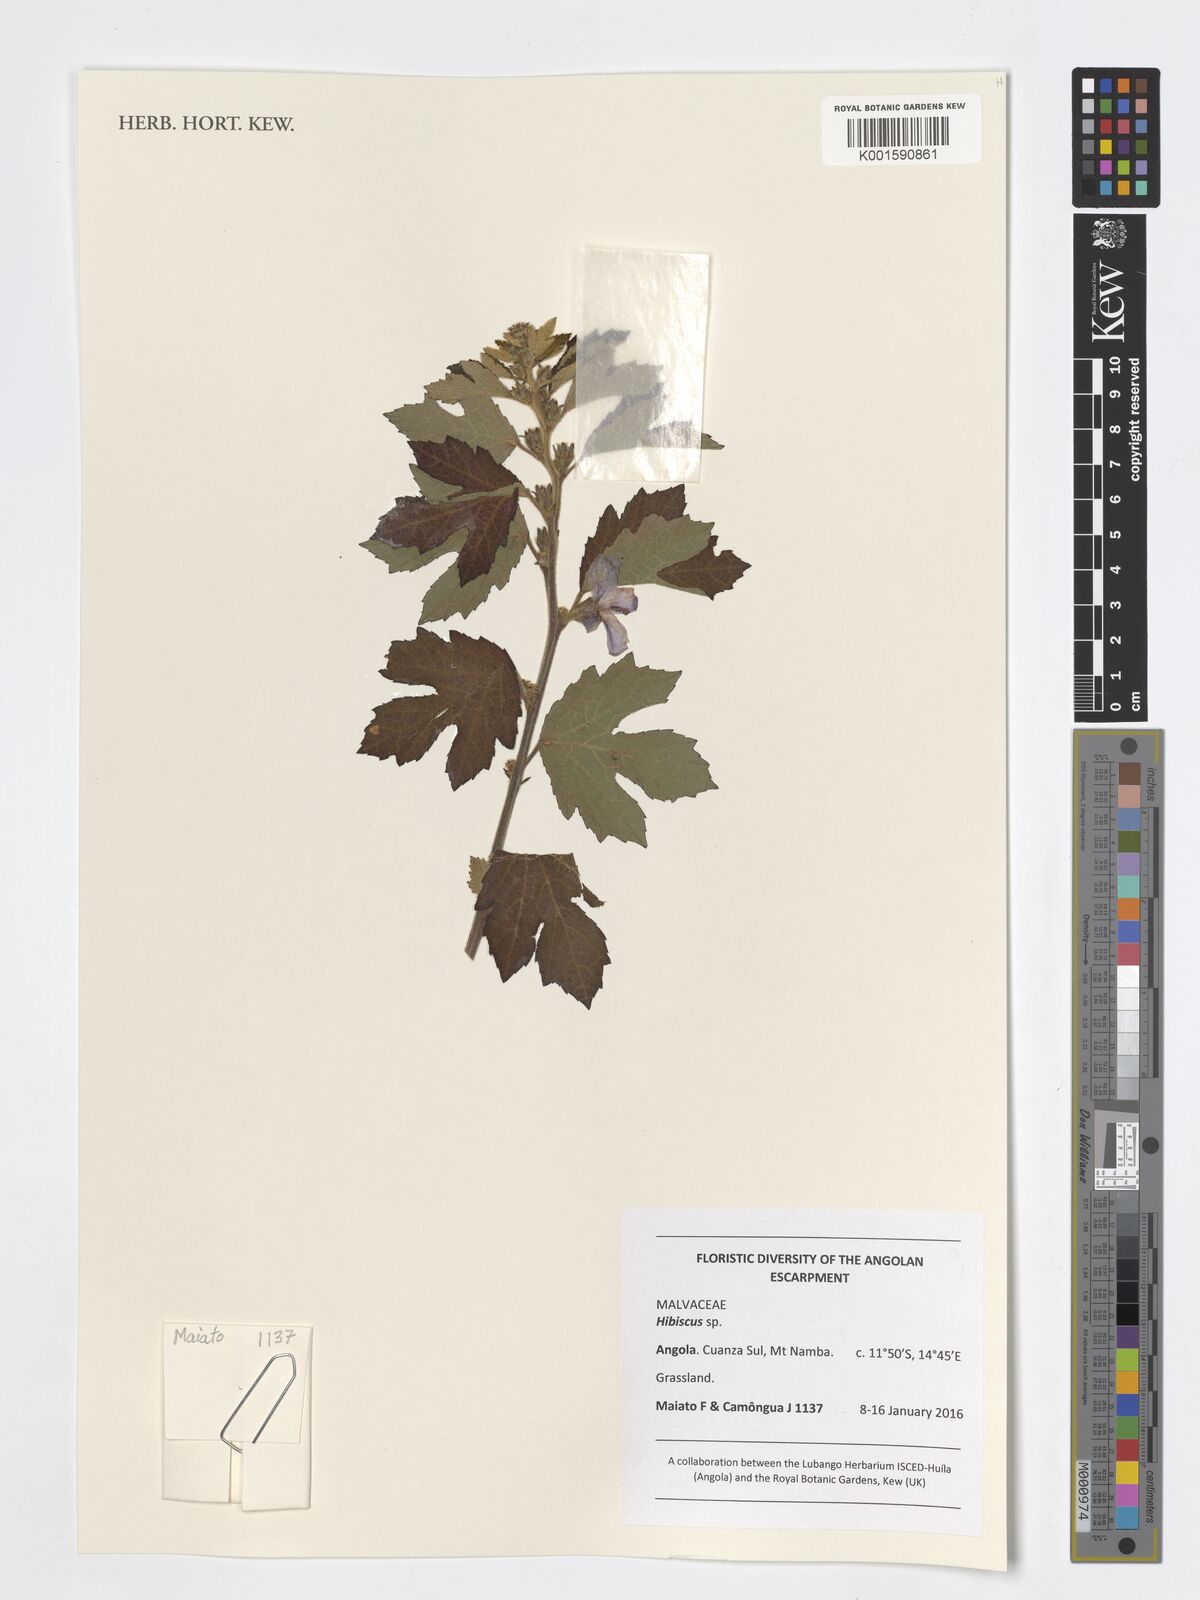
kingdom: Plantae
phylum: Tracheophyta
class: Magnoliopsida
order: Malvales
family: Malvaceae
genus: Hibiscus
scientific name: Hibiscus
